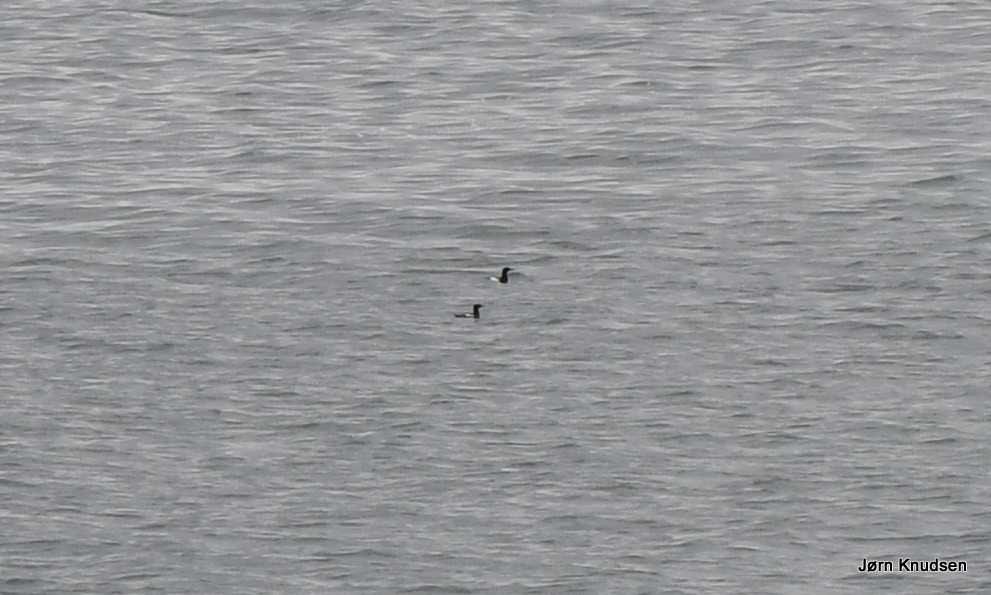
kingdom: Animalia
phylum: Chordata
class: Aves
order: Charadriiformes
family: Alcidae
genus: Cepphus
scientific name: Cepphus grylle
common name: Tejst
